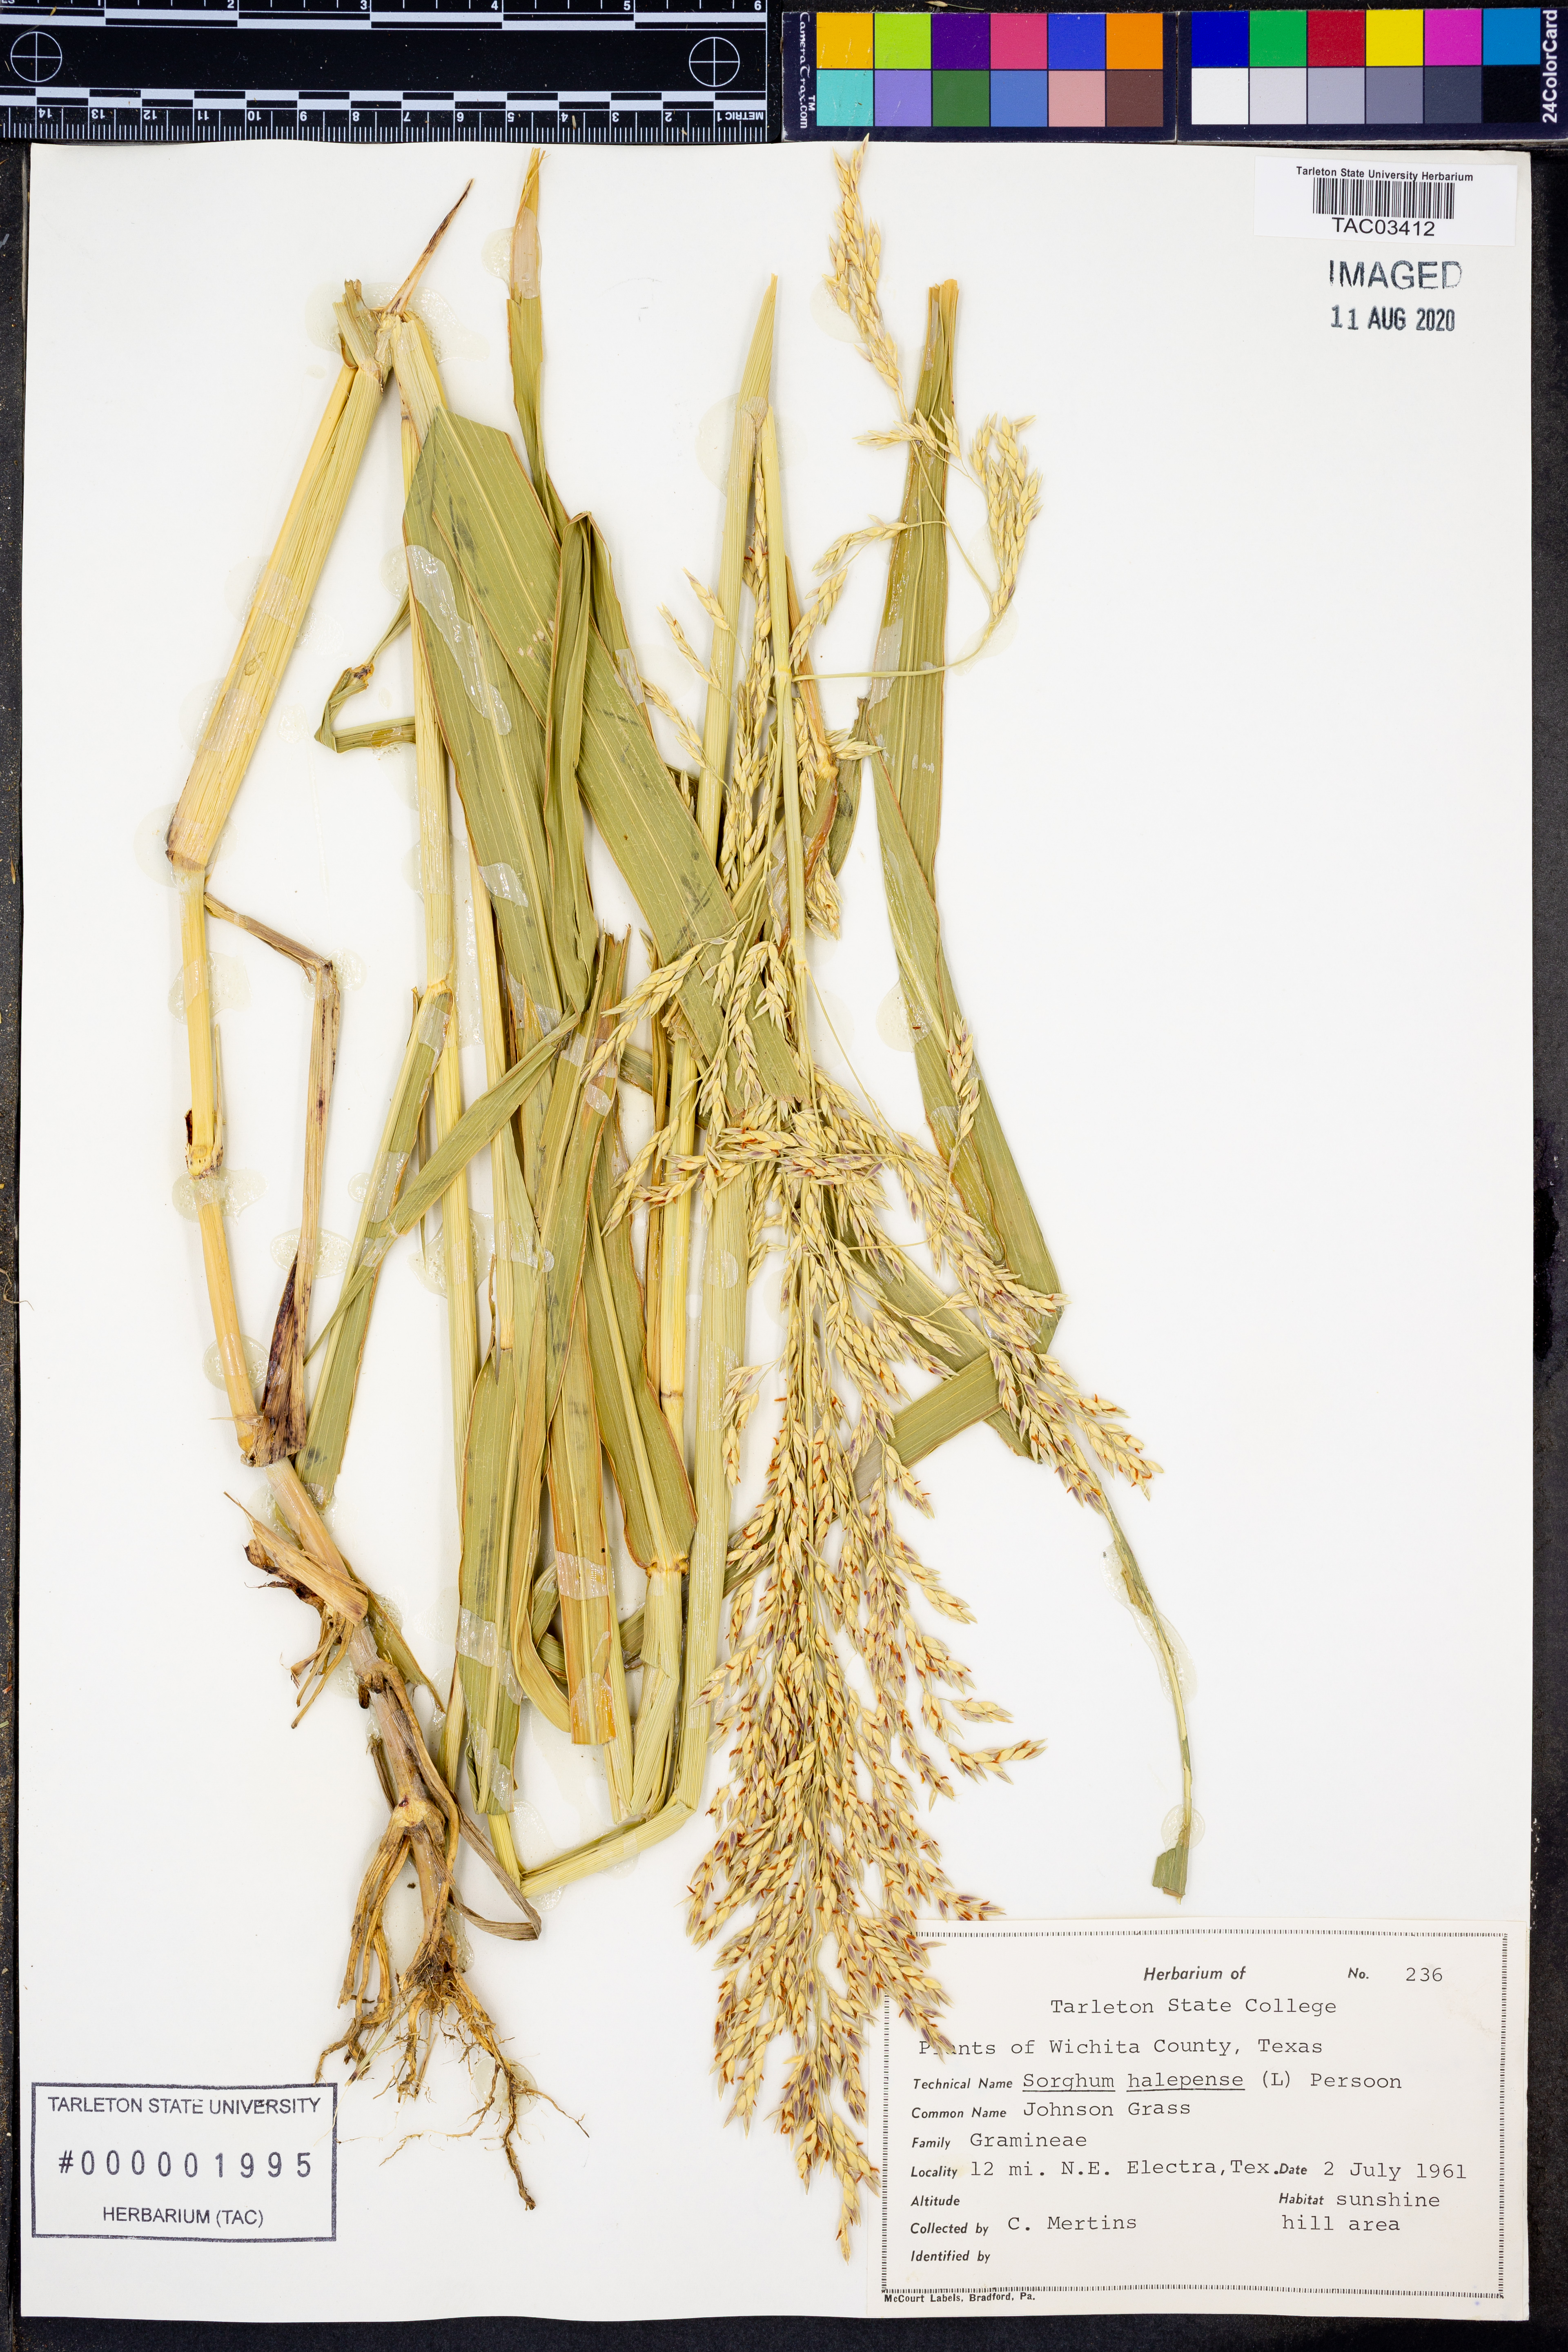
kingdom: Plantae
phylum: Tracheophyta
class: Liliopsida
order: Poales
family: Poaceae
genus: Sorghum
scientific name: Sorghum halepense
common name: Johnson-grass
